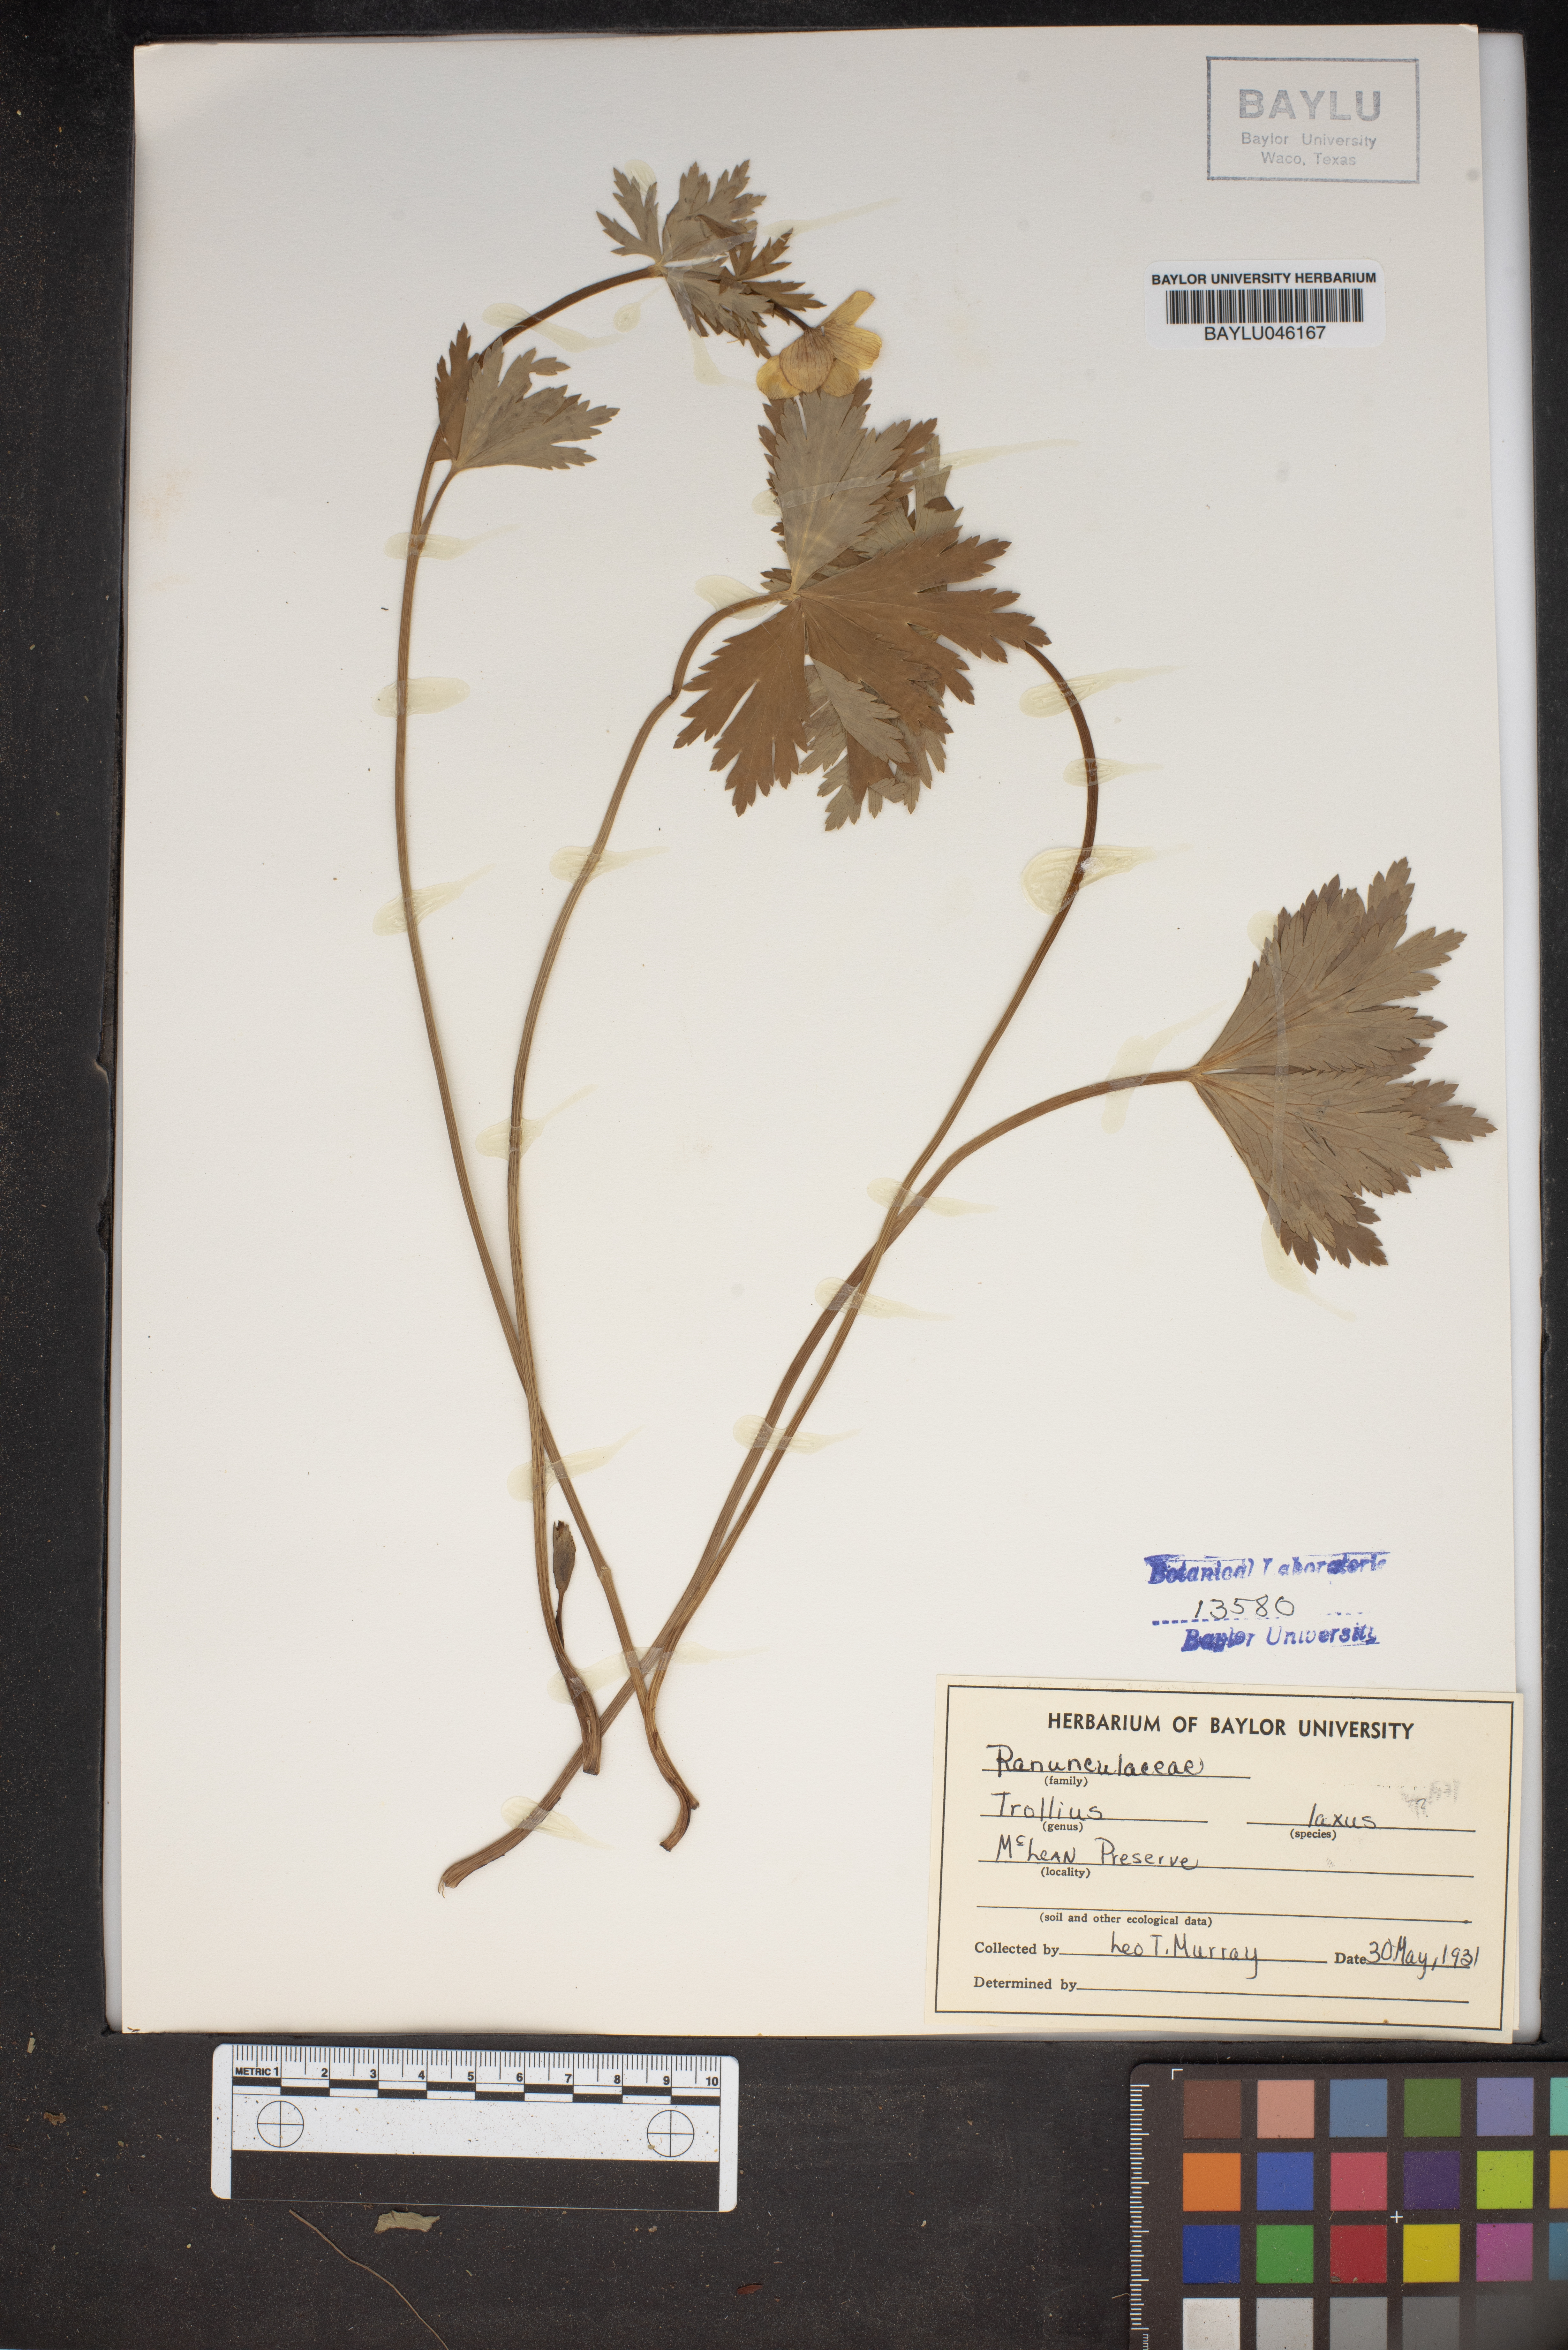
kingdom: Plantae
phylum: Tracheophyta
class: Magnoliopsida
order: Ranunculales
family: Ranunculaceae
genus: Trollius
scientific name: Trollius laxus
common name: American globeflower
